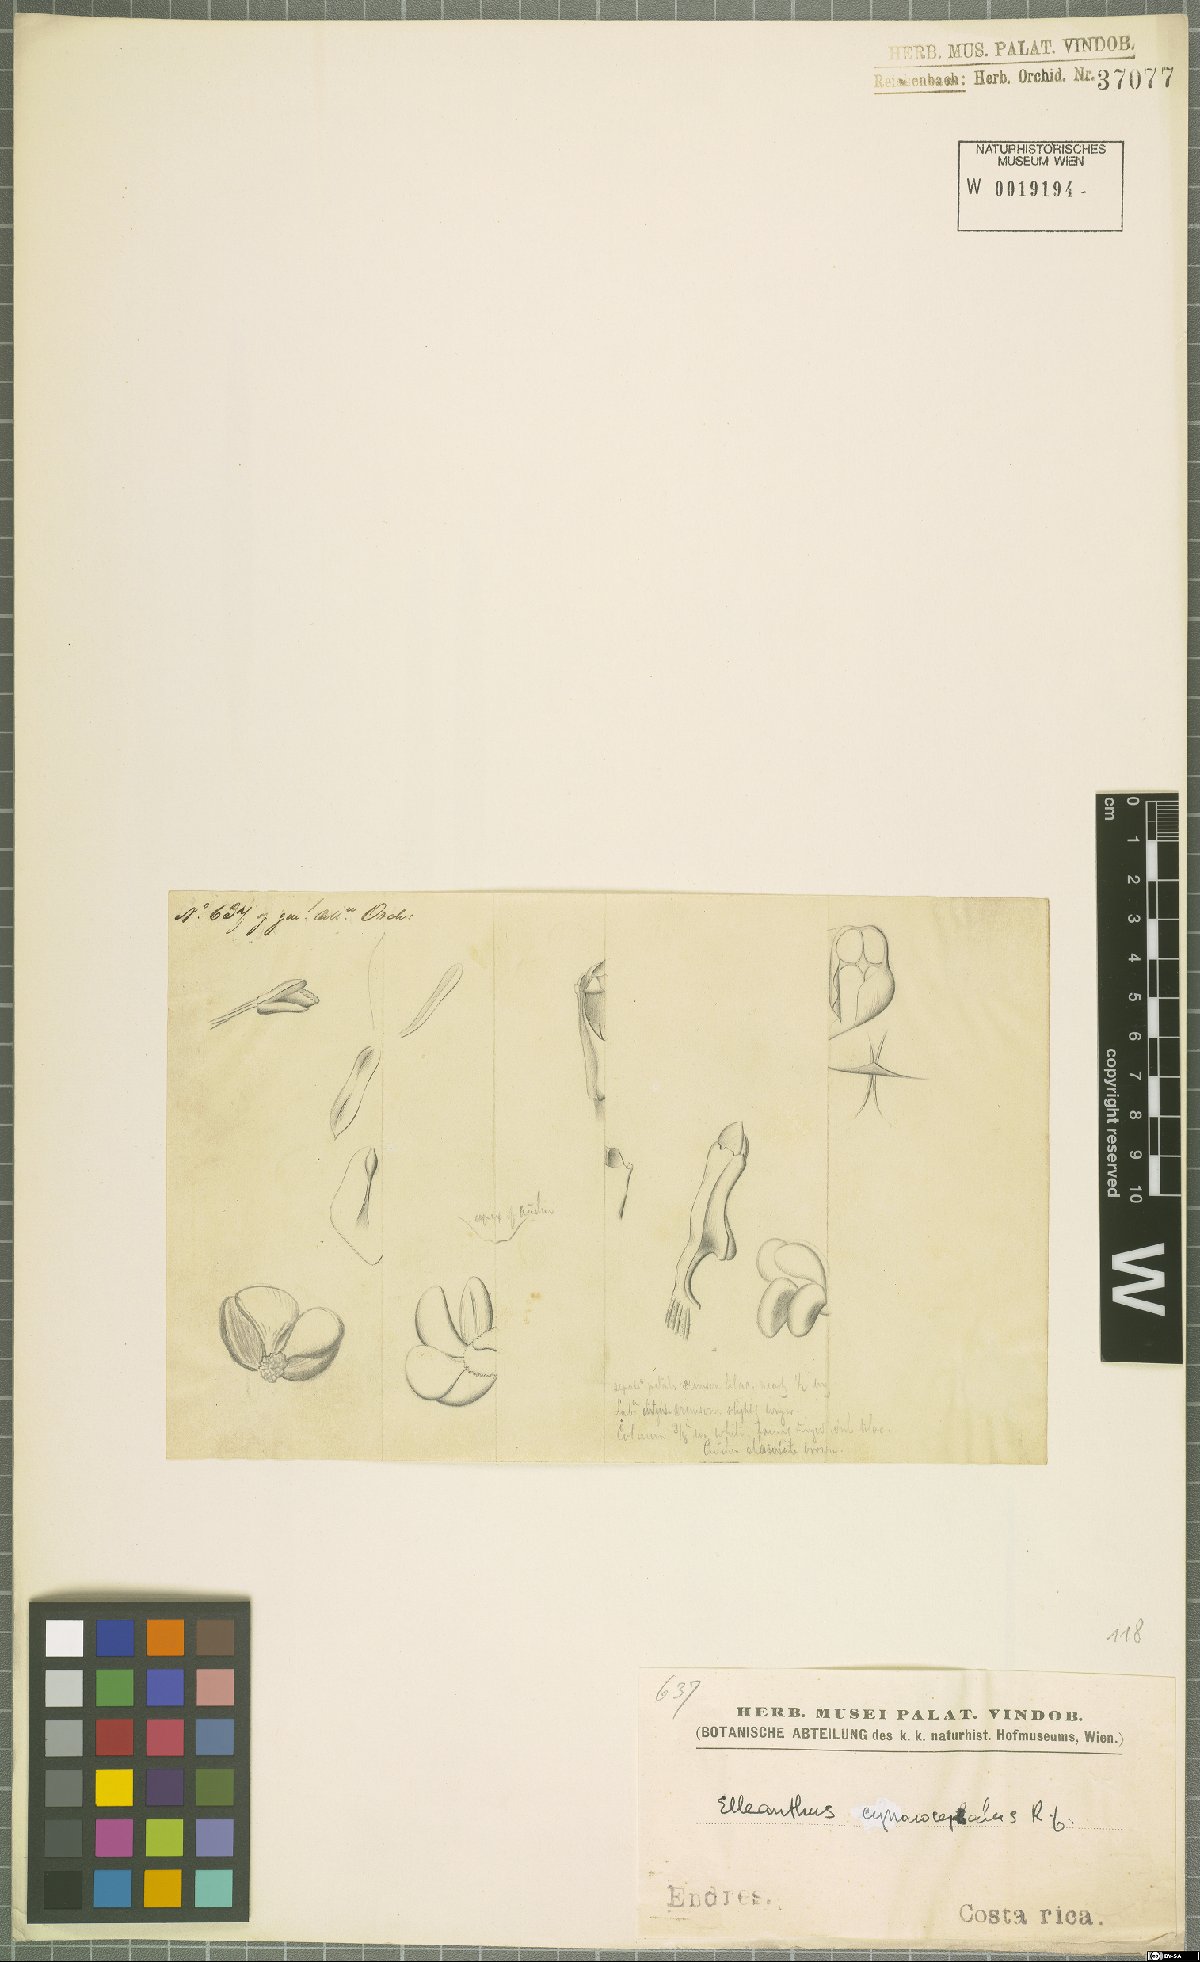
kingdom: Plantae
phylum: Tracheophyta
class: Liliopsida
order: Asparagales
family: Orchidaceae
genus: Elleanthus
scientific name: Elleanthus capitatus
